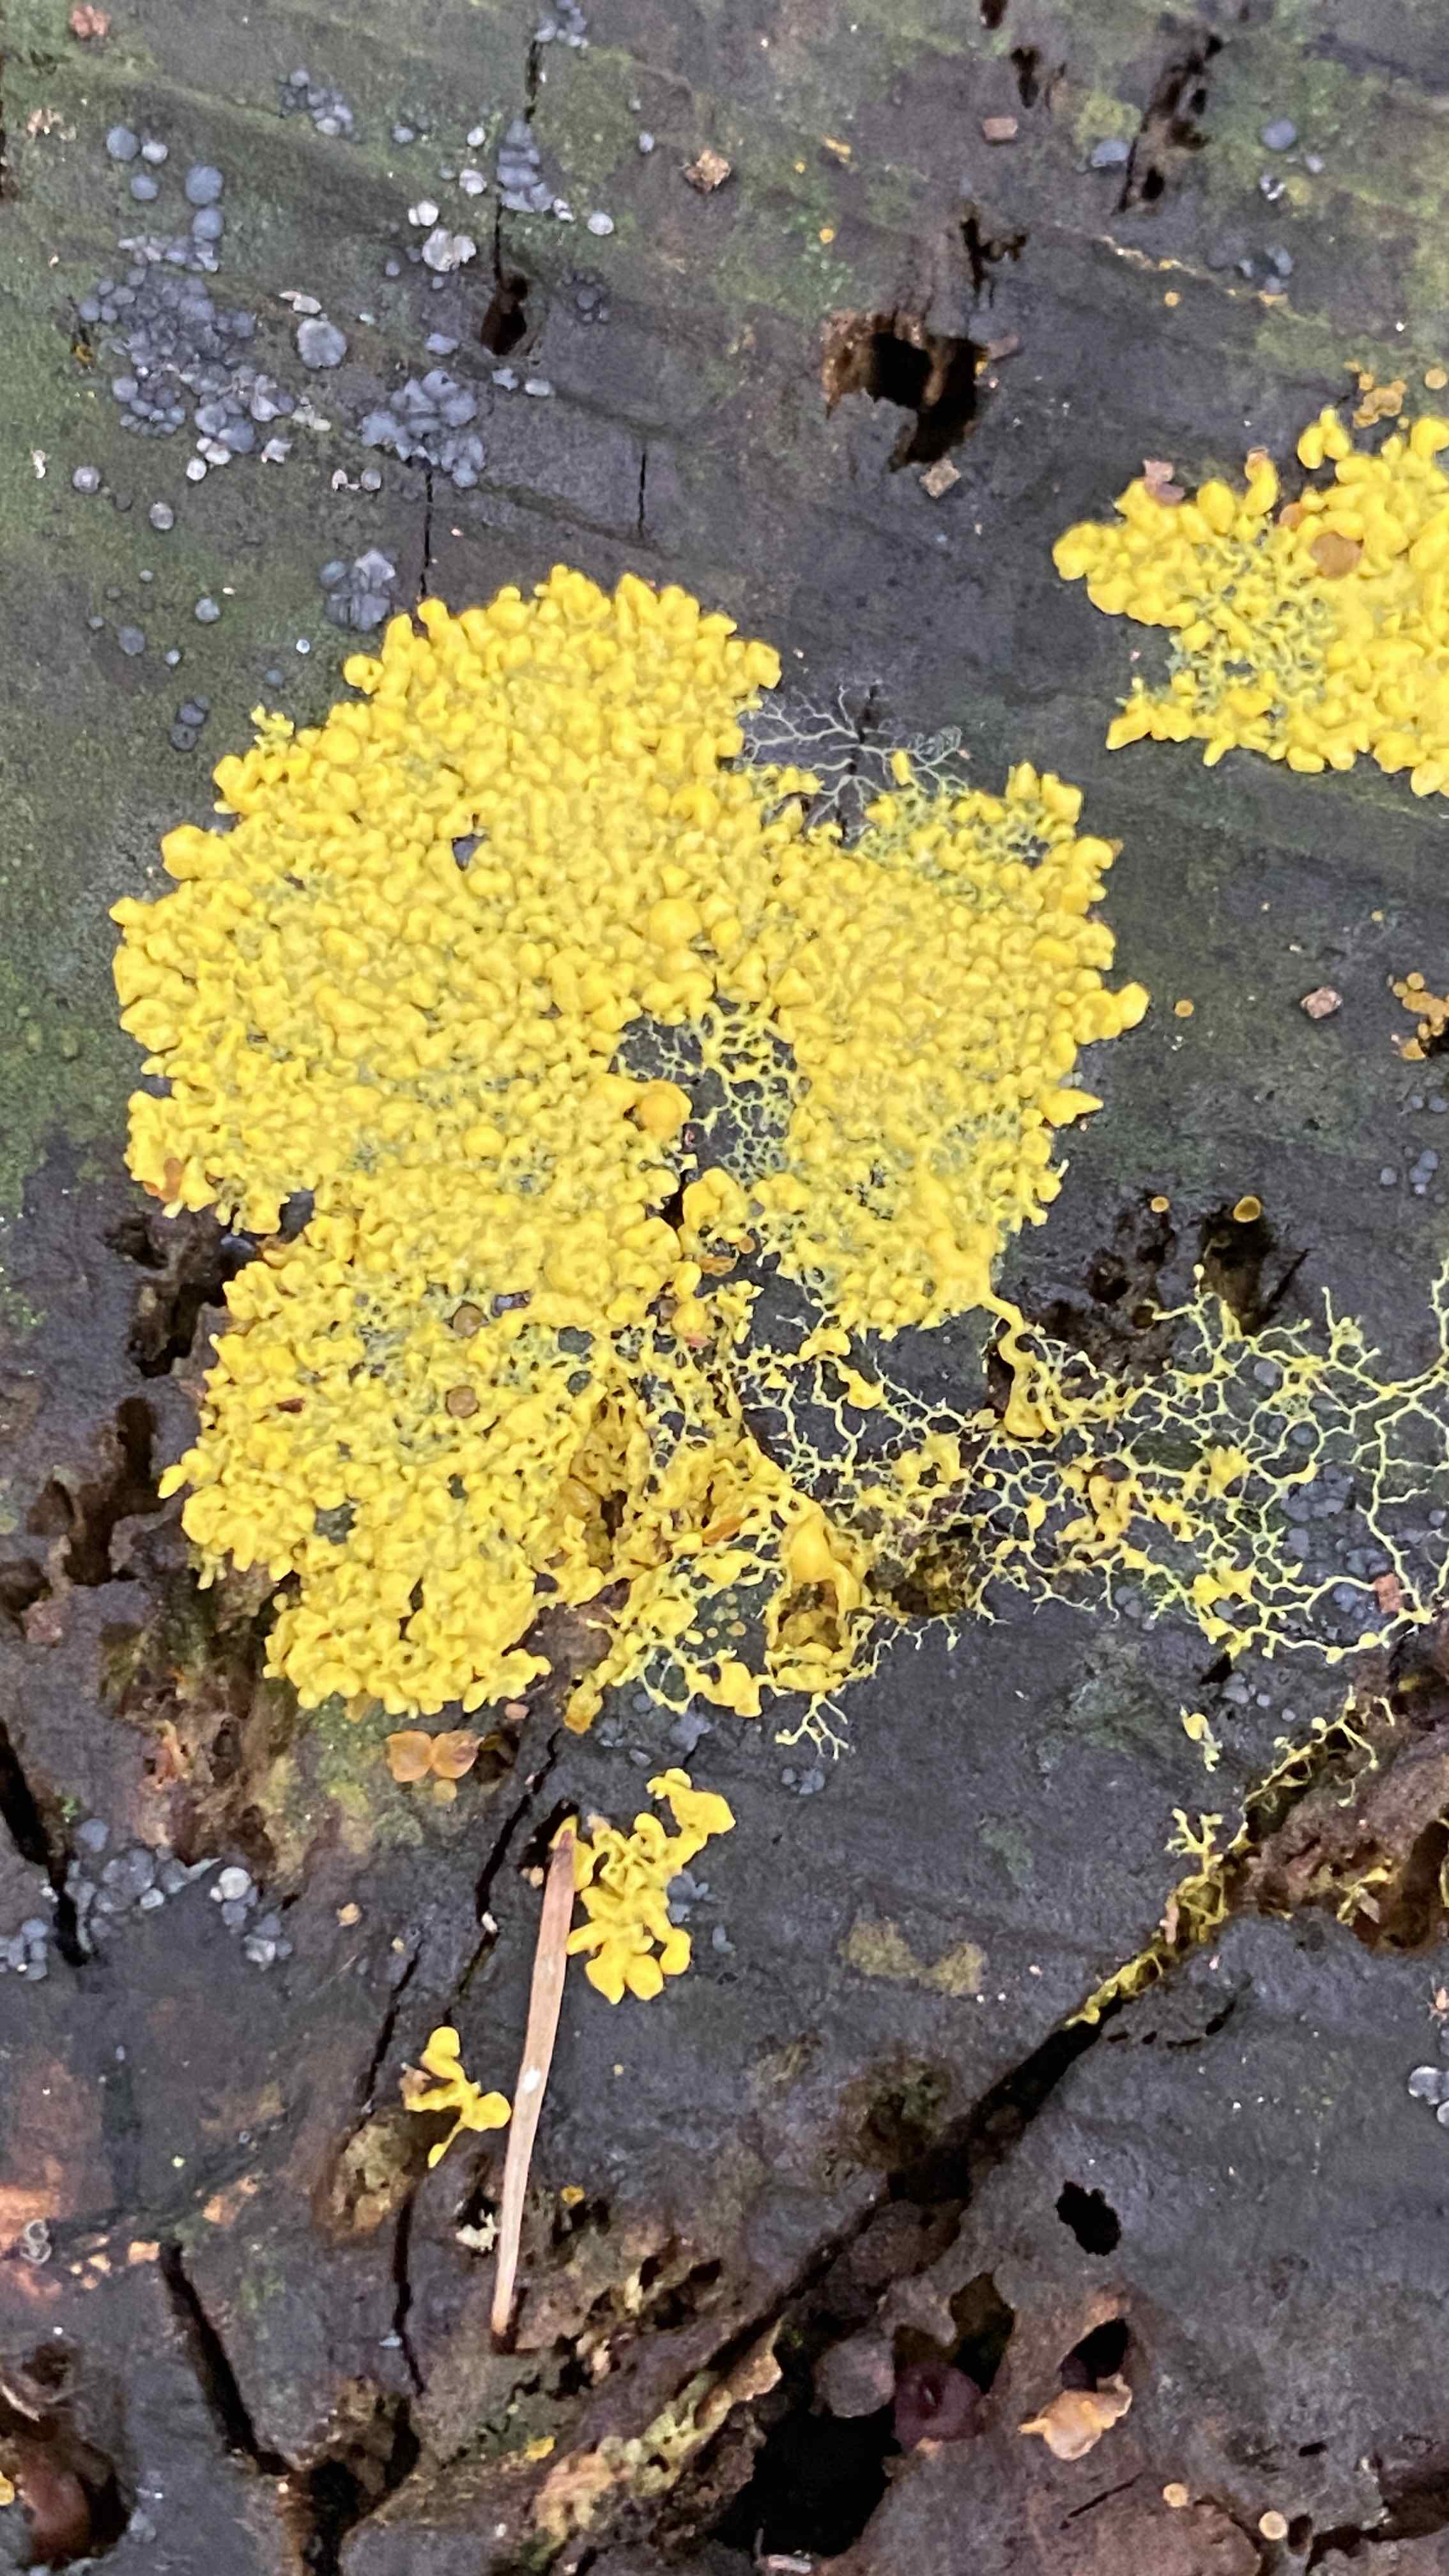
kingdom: Protozoa
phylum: Mycetozoa
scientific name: Mycetozoa
